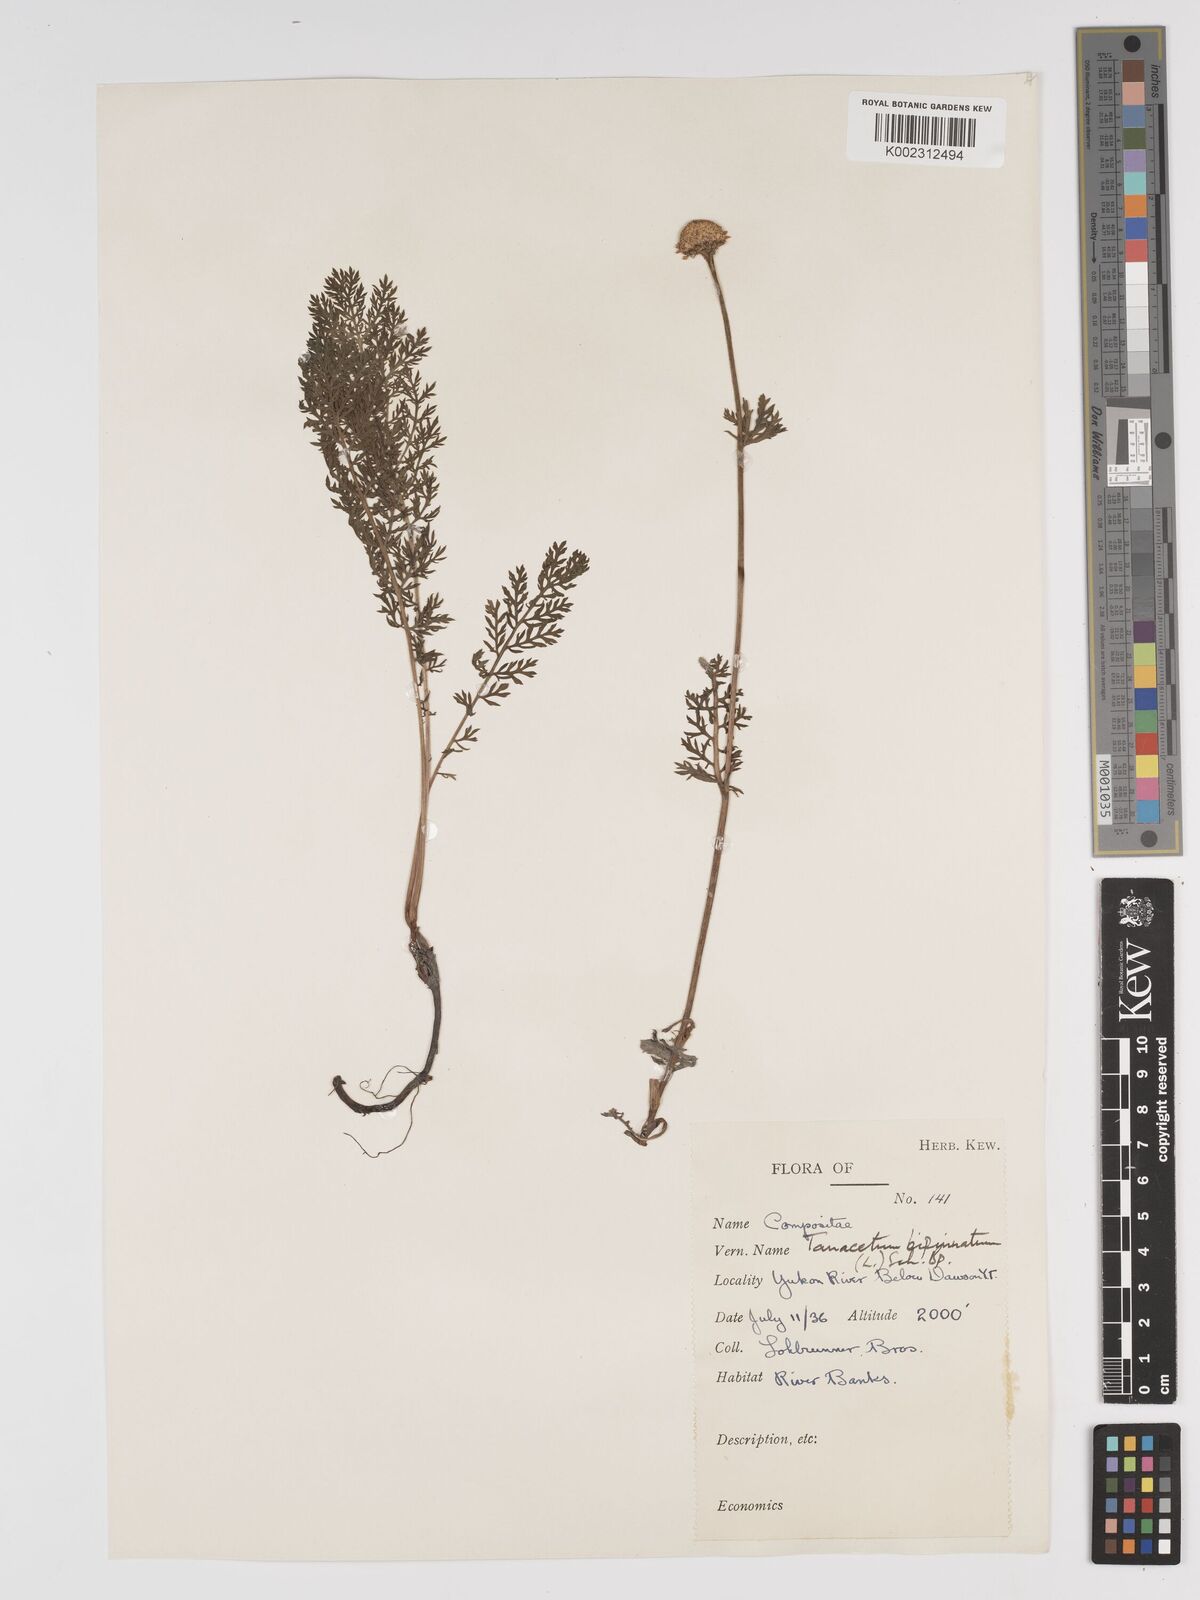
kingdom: Plantae
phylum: Tracheophyta
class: Magnoliopsida
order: Asterales
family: Asteraceae
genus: Tanacetum
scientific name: Tanacetum bipinnatum
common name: Dwarf tansy
